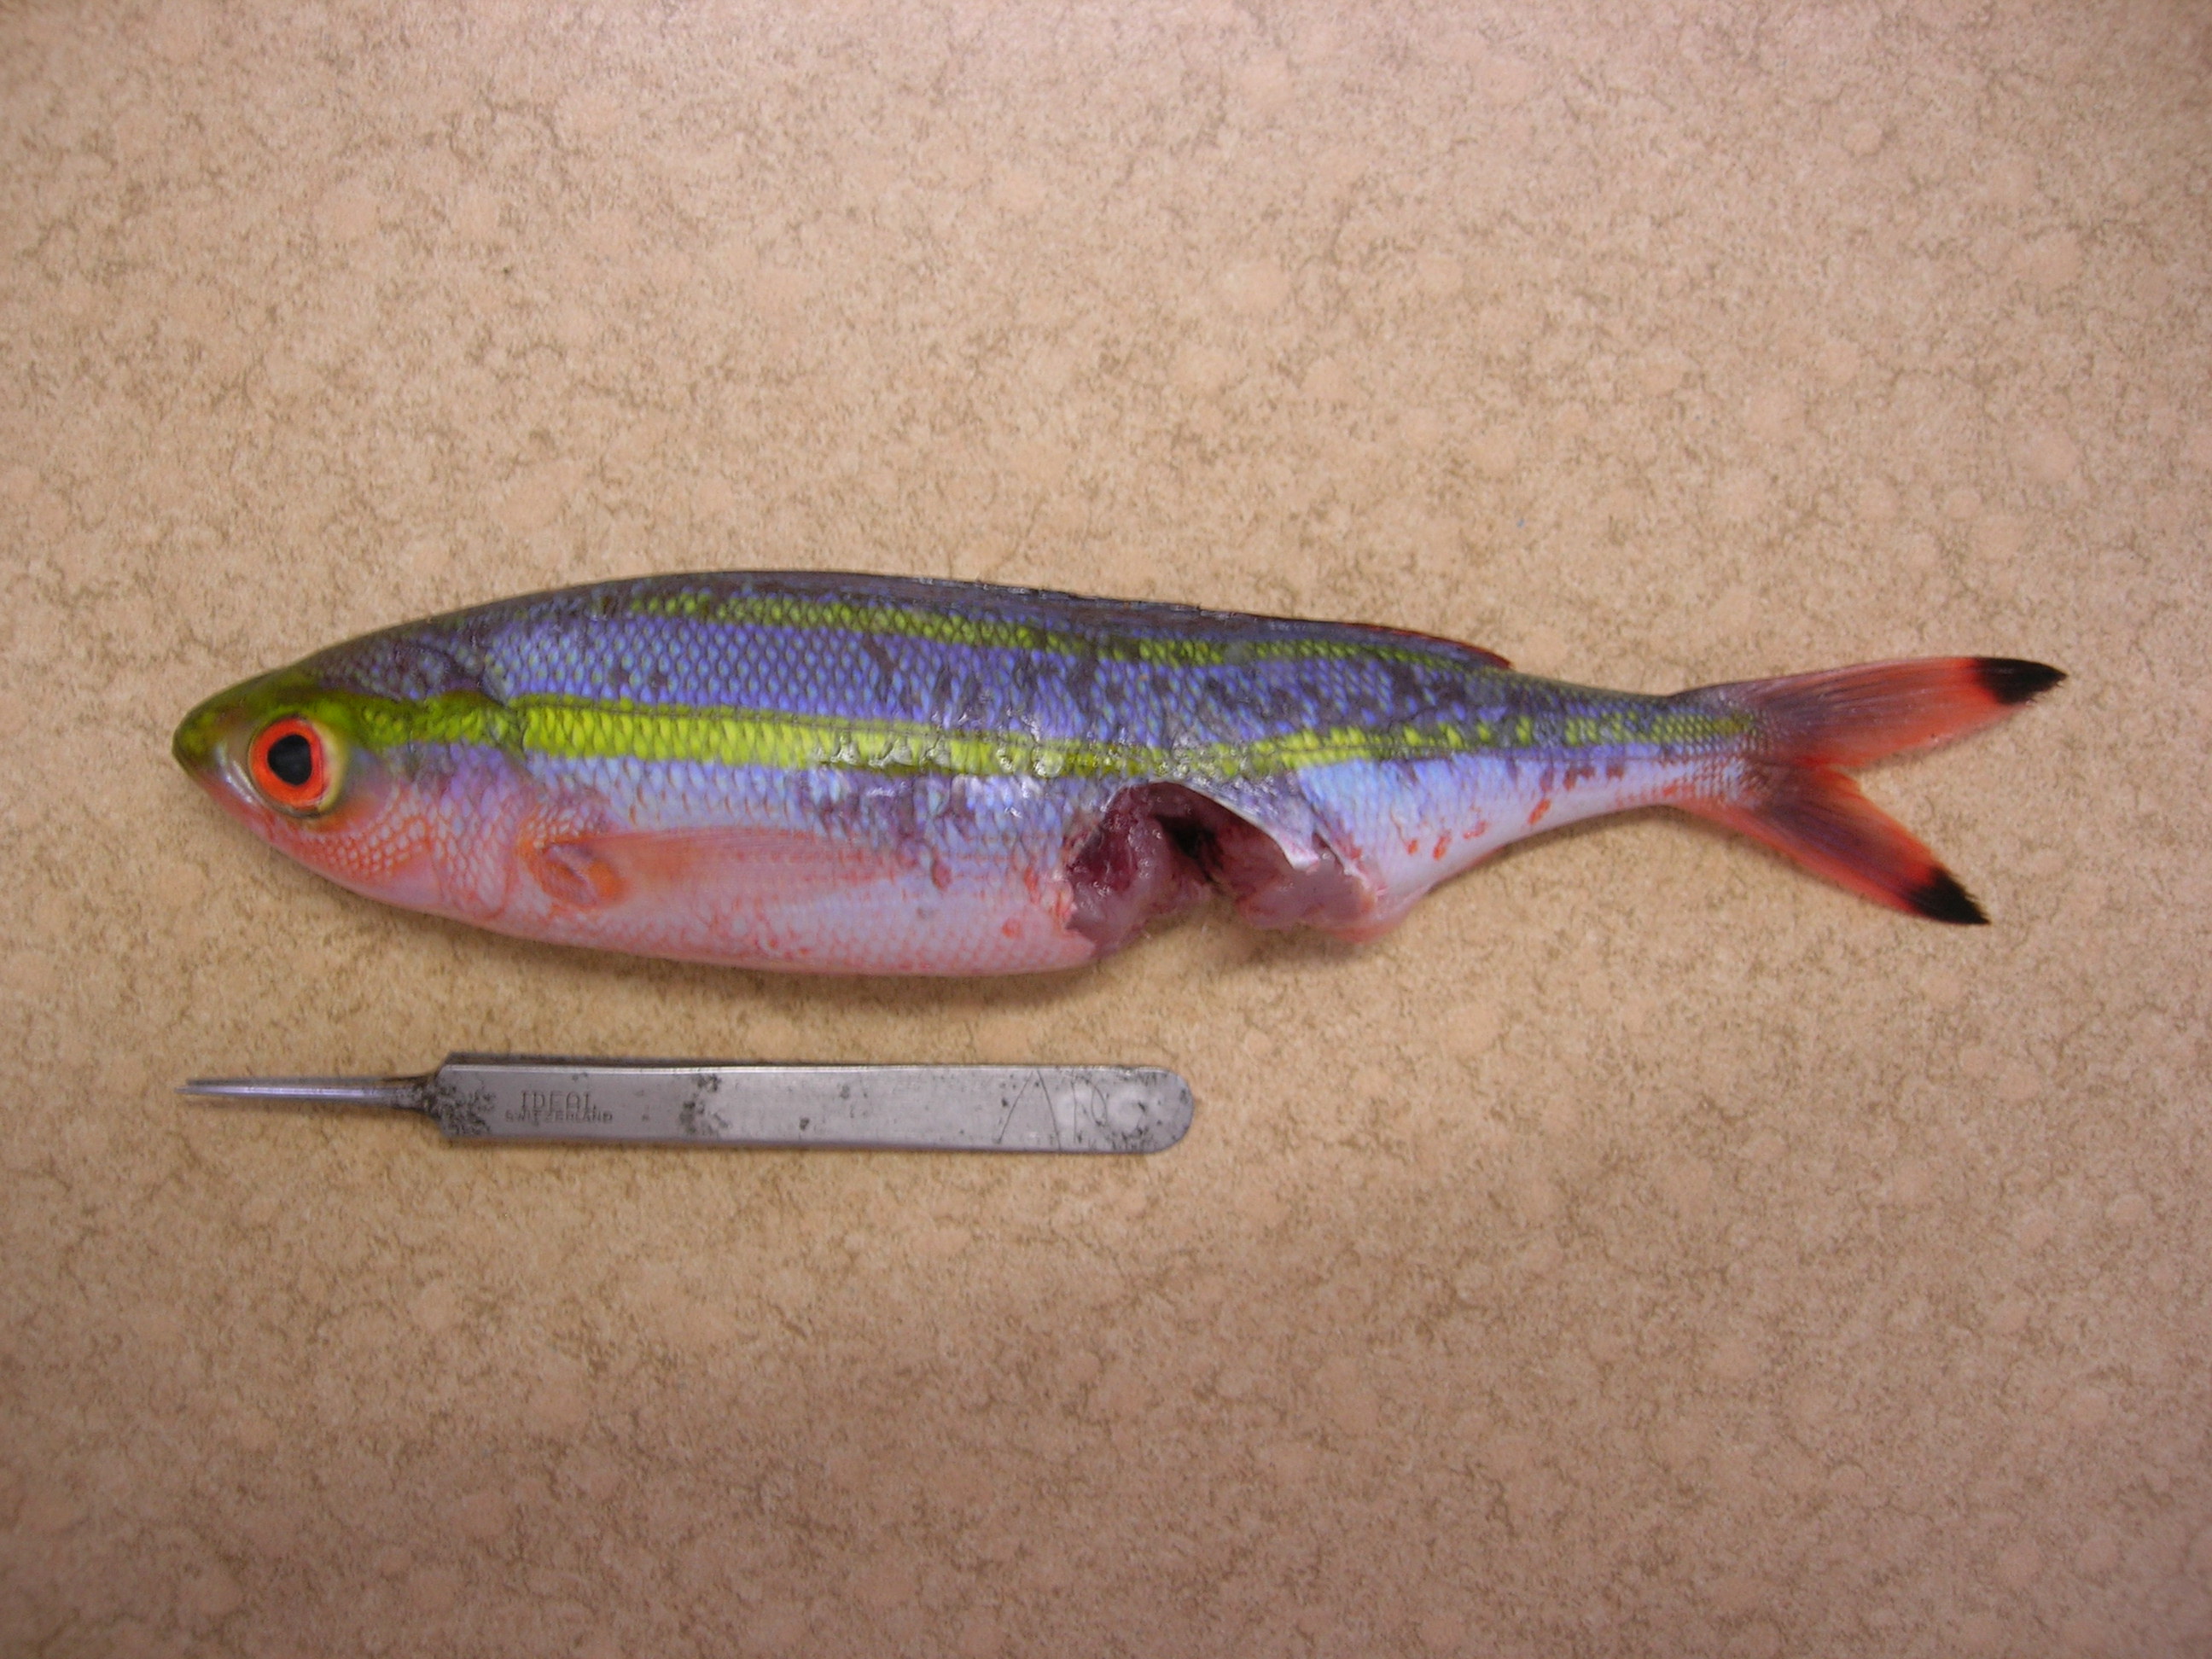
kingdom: Animalia
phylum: Chordata
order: Perciformes
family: Caesionidae
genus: Pterocaesio
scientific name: Pterocaesio marri
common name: Marr's fusilier
